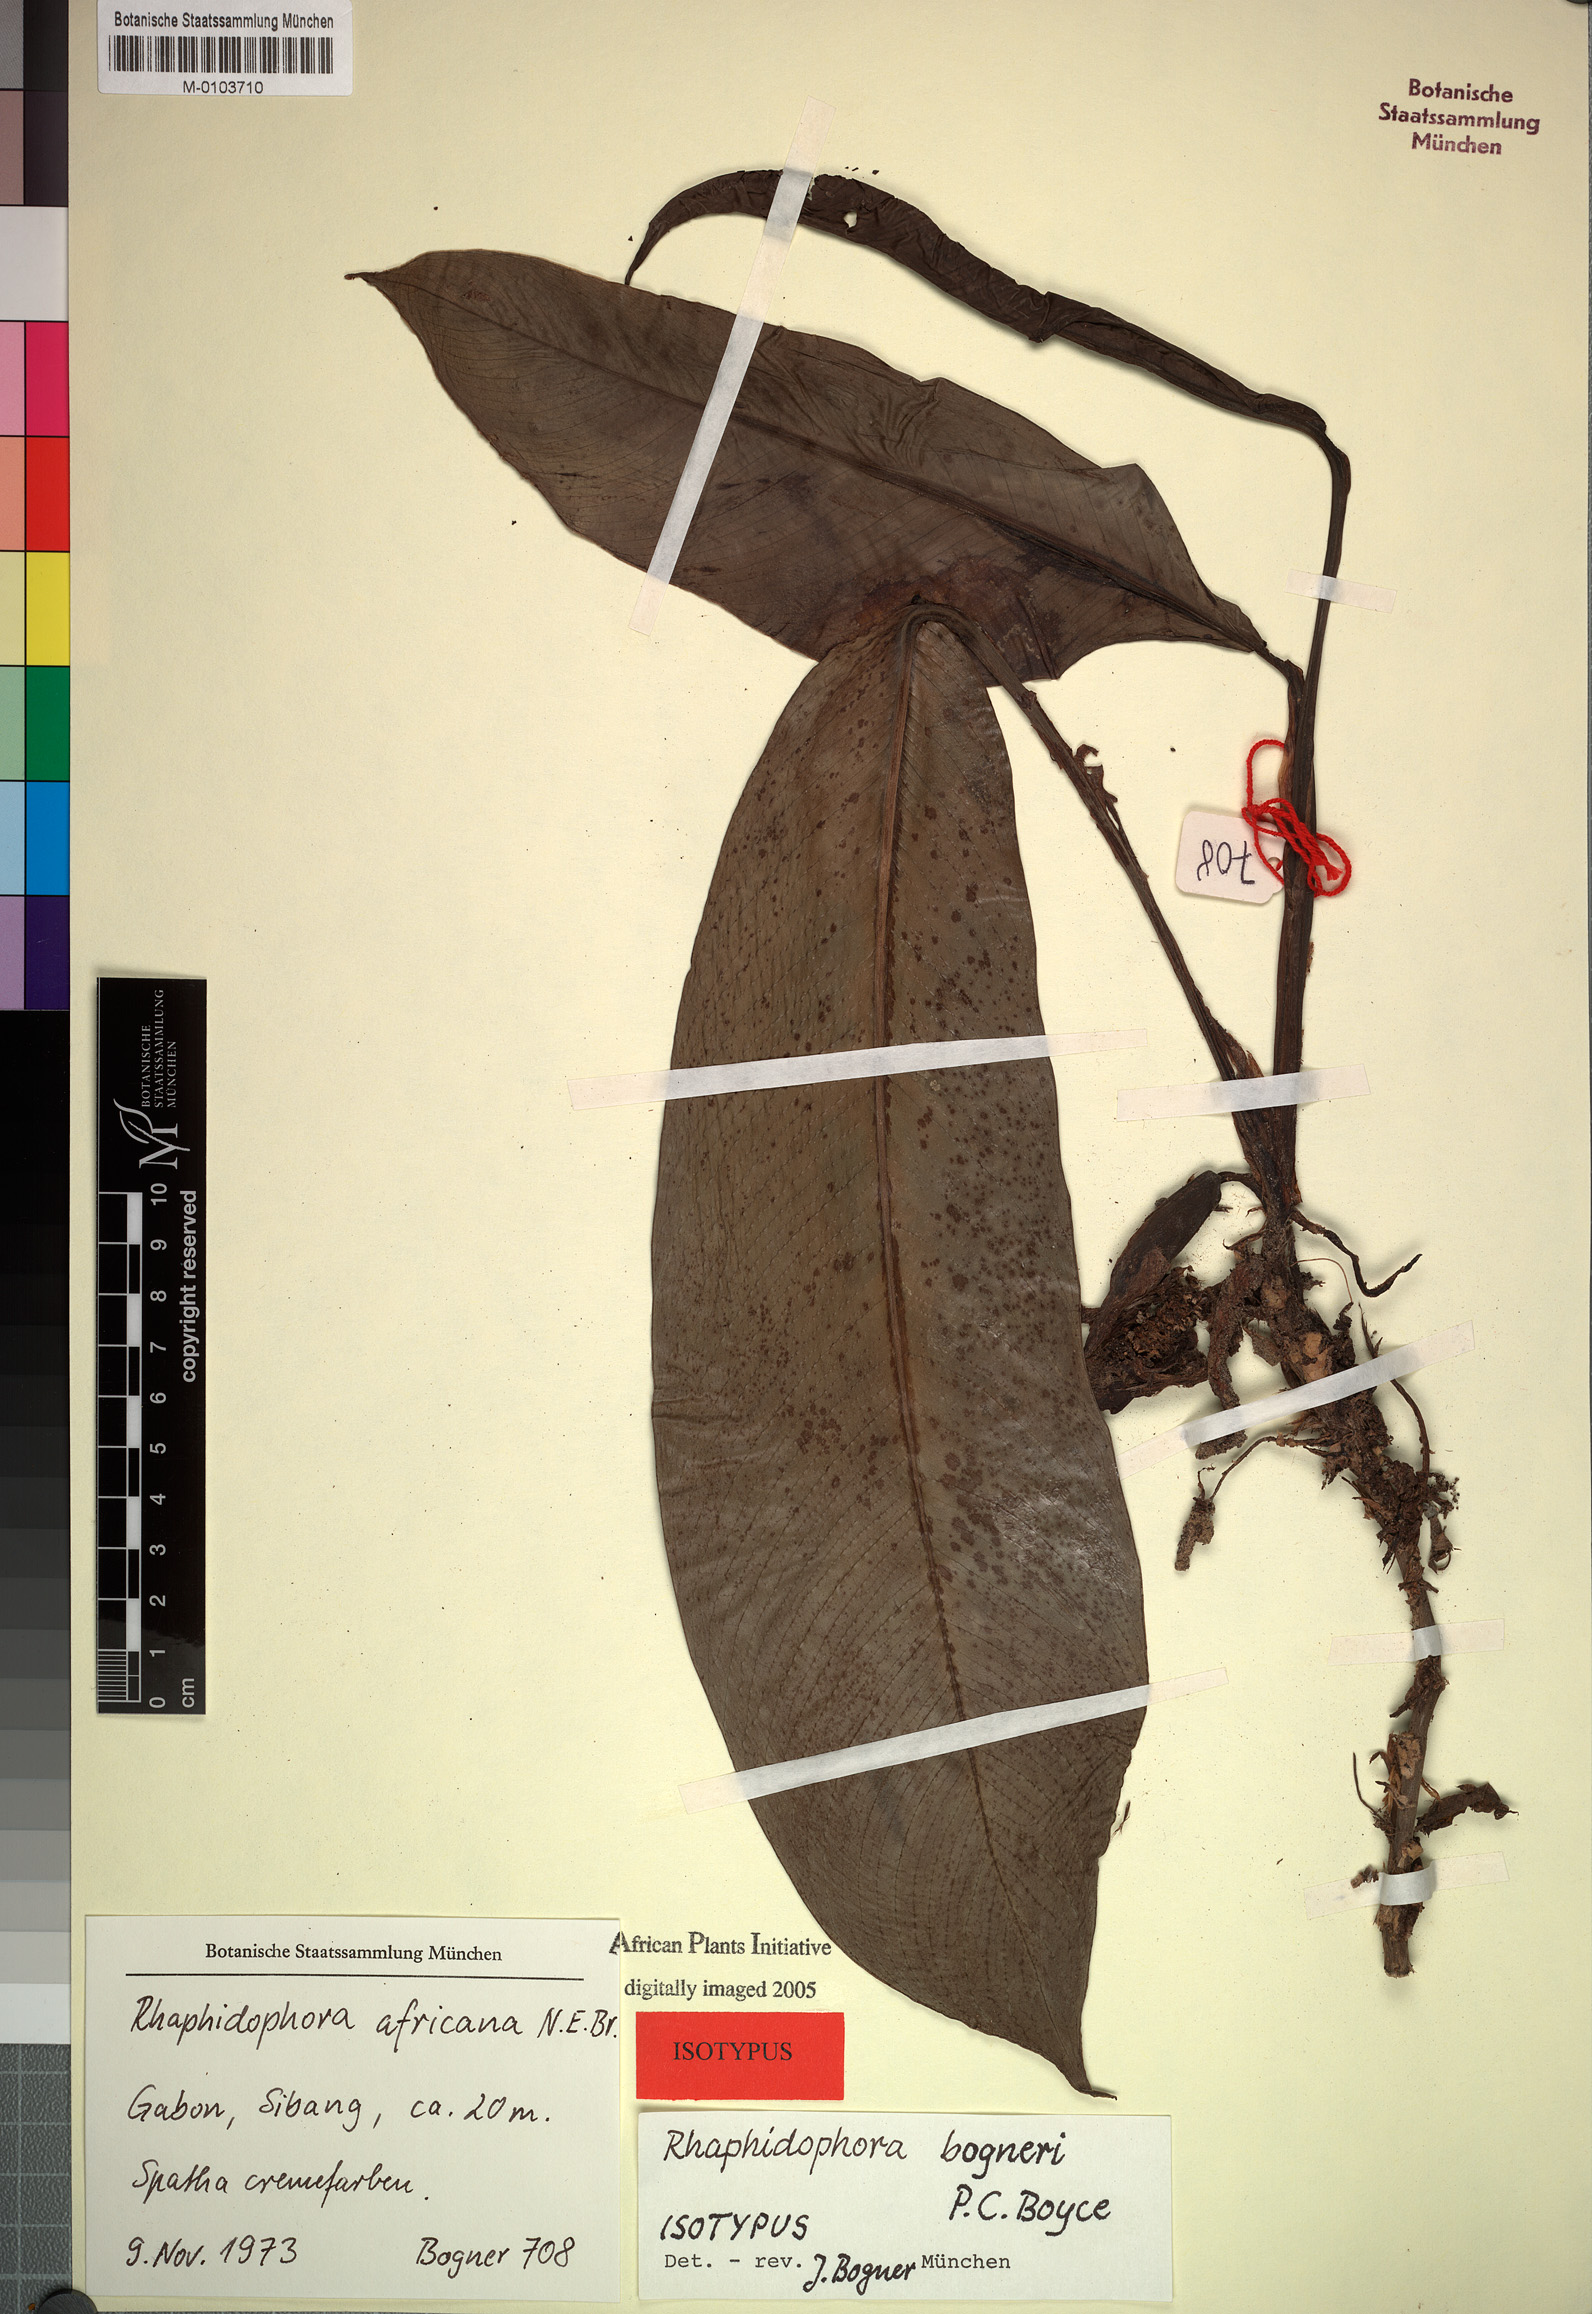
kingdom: Plantae
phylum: Tracheophyta
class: Liliopsida
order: Alismatales
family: Araceae
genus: Rhaphidophora
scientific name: Rhaphidophora africana
